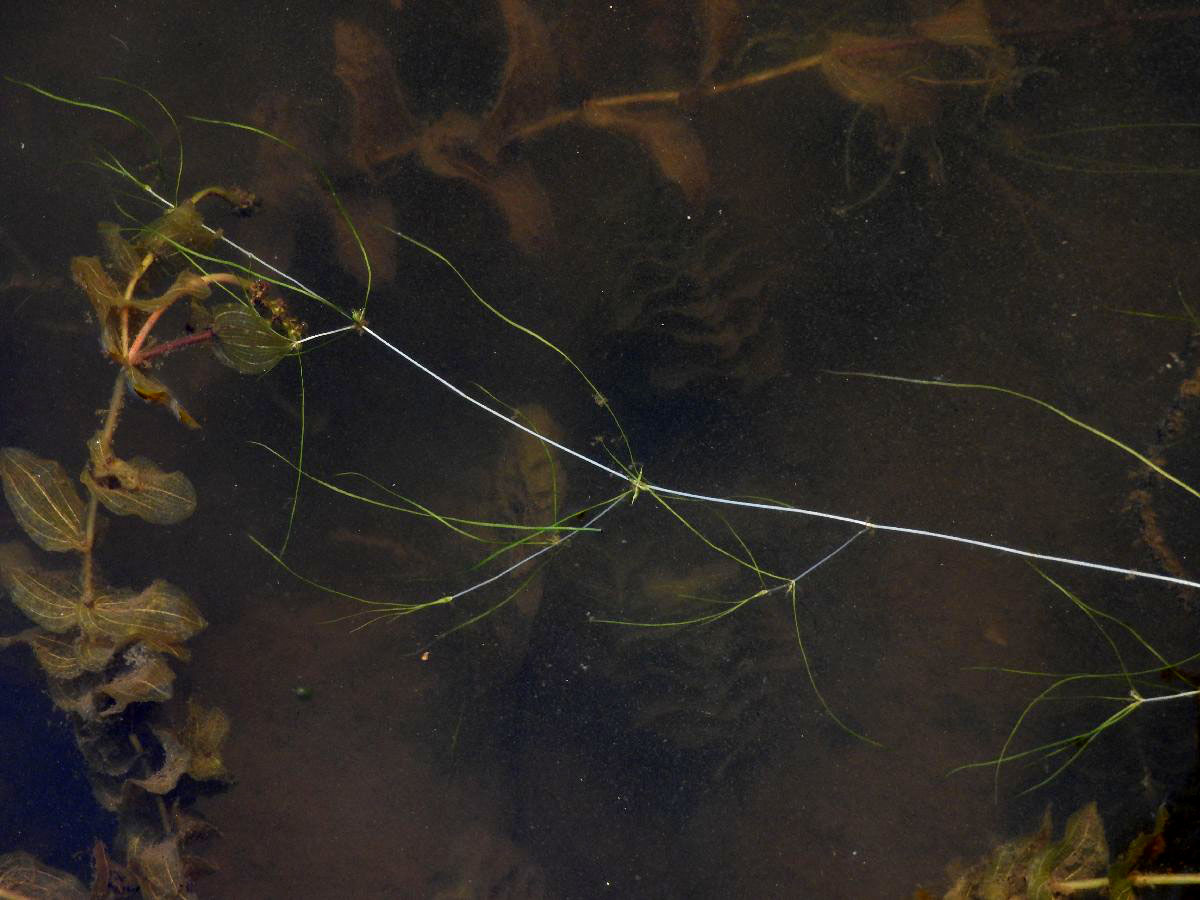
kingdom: Plantae
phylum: Tracheophyta
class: Liliopsida
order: Alismatales
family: Potamogetonaceae
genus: Zannichellia
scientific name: Zannichellia palustris
